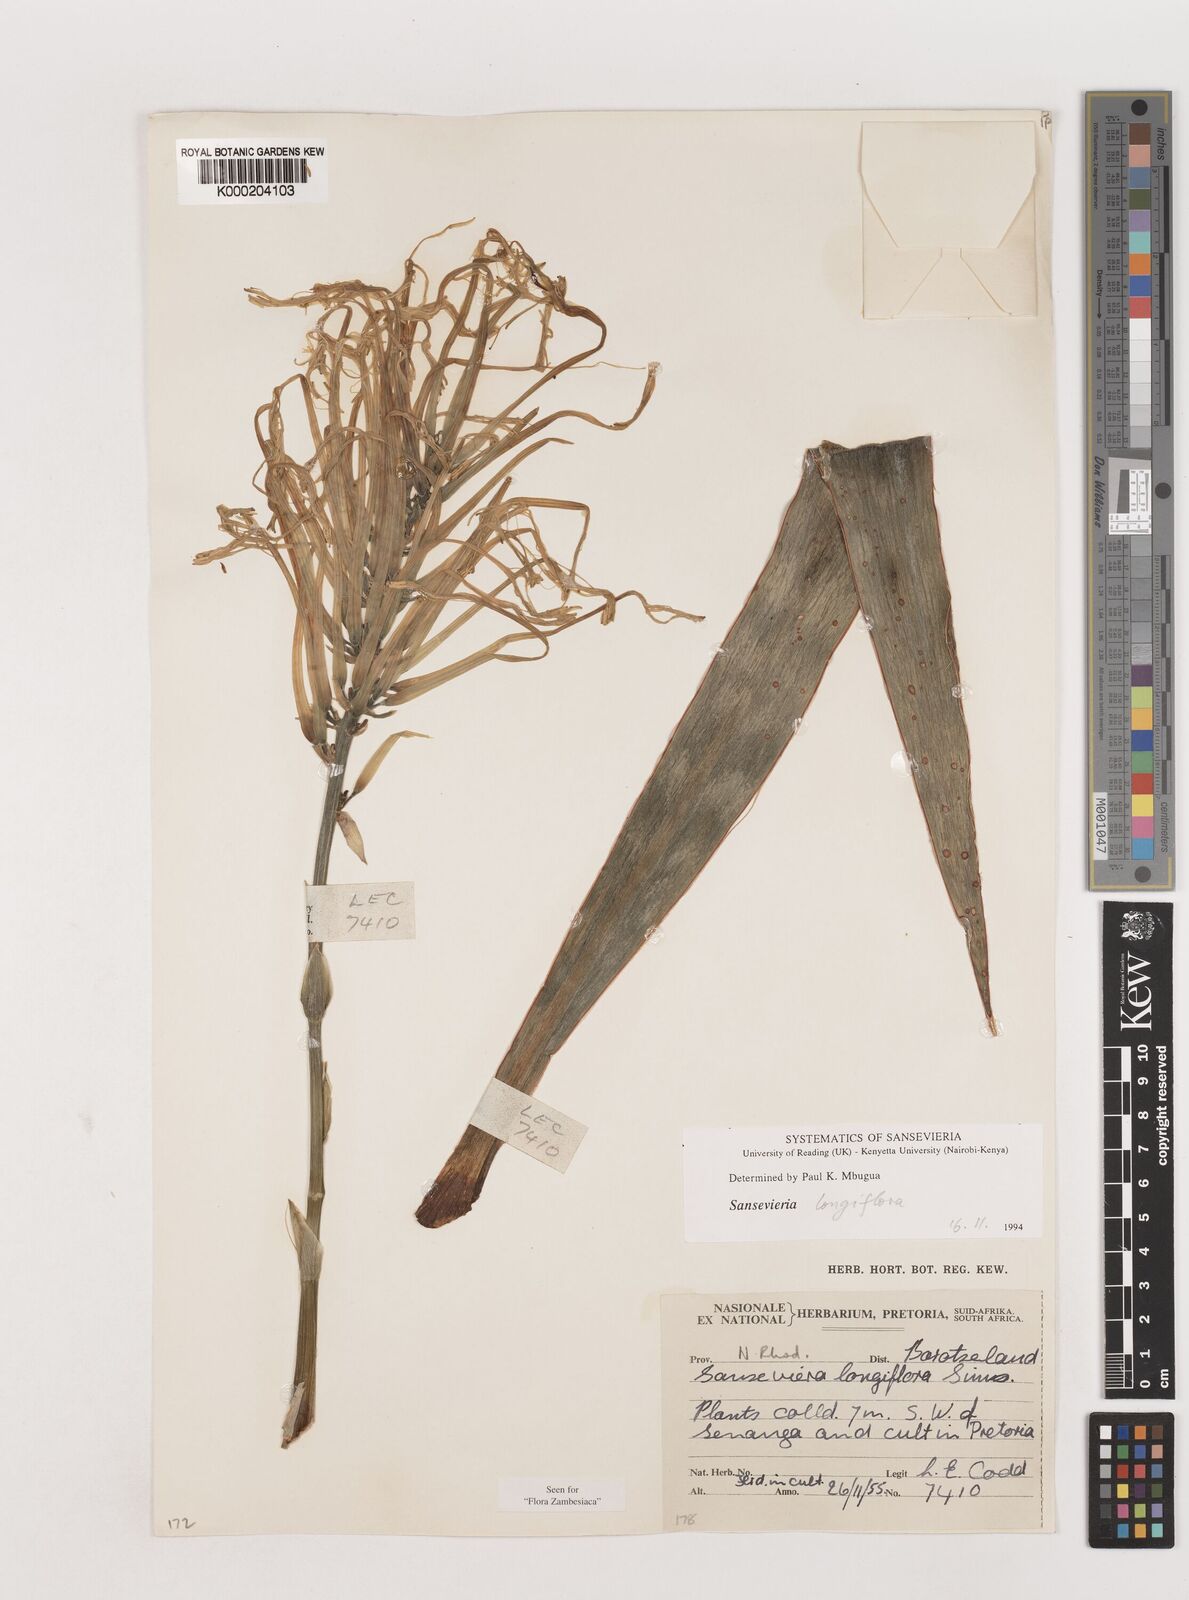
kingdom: Plantae
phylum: Tracheophyta
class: Liliopsida
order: Asparagales
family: Asparagaceae
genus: Dracaena
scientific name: Dracaena longiflora
